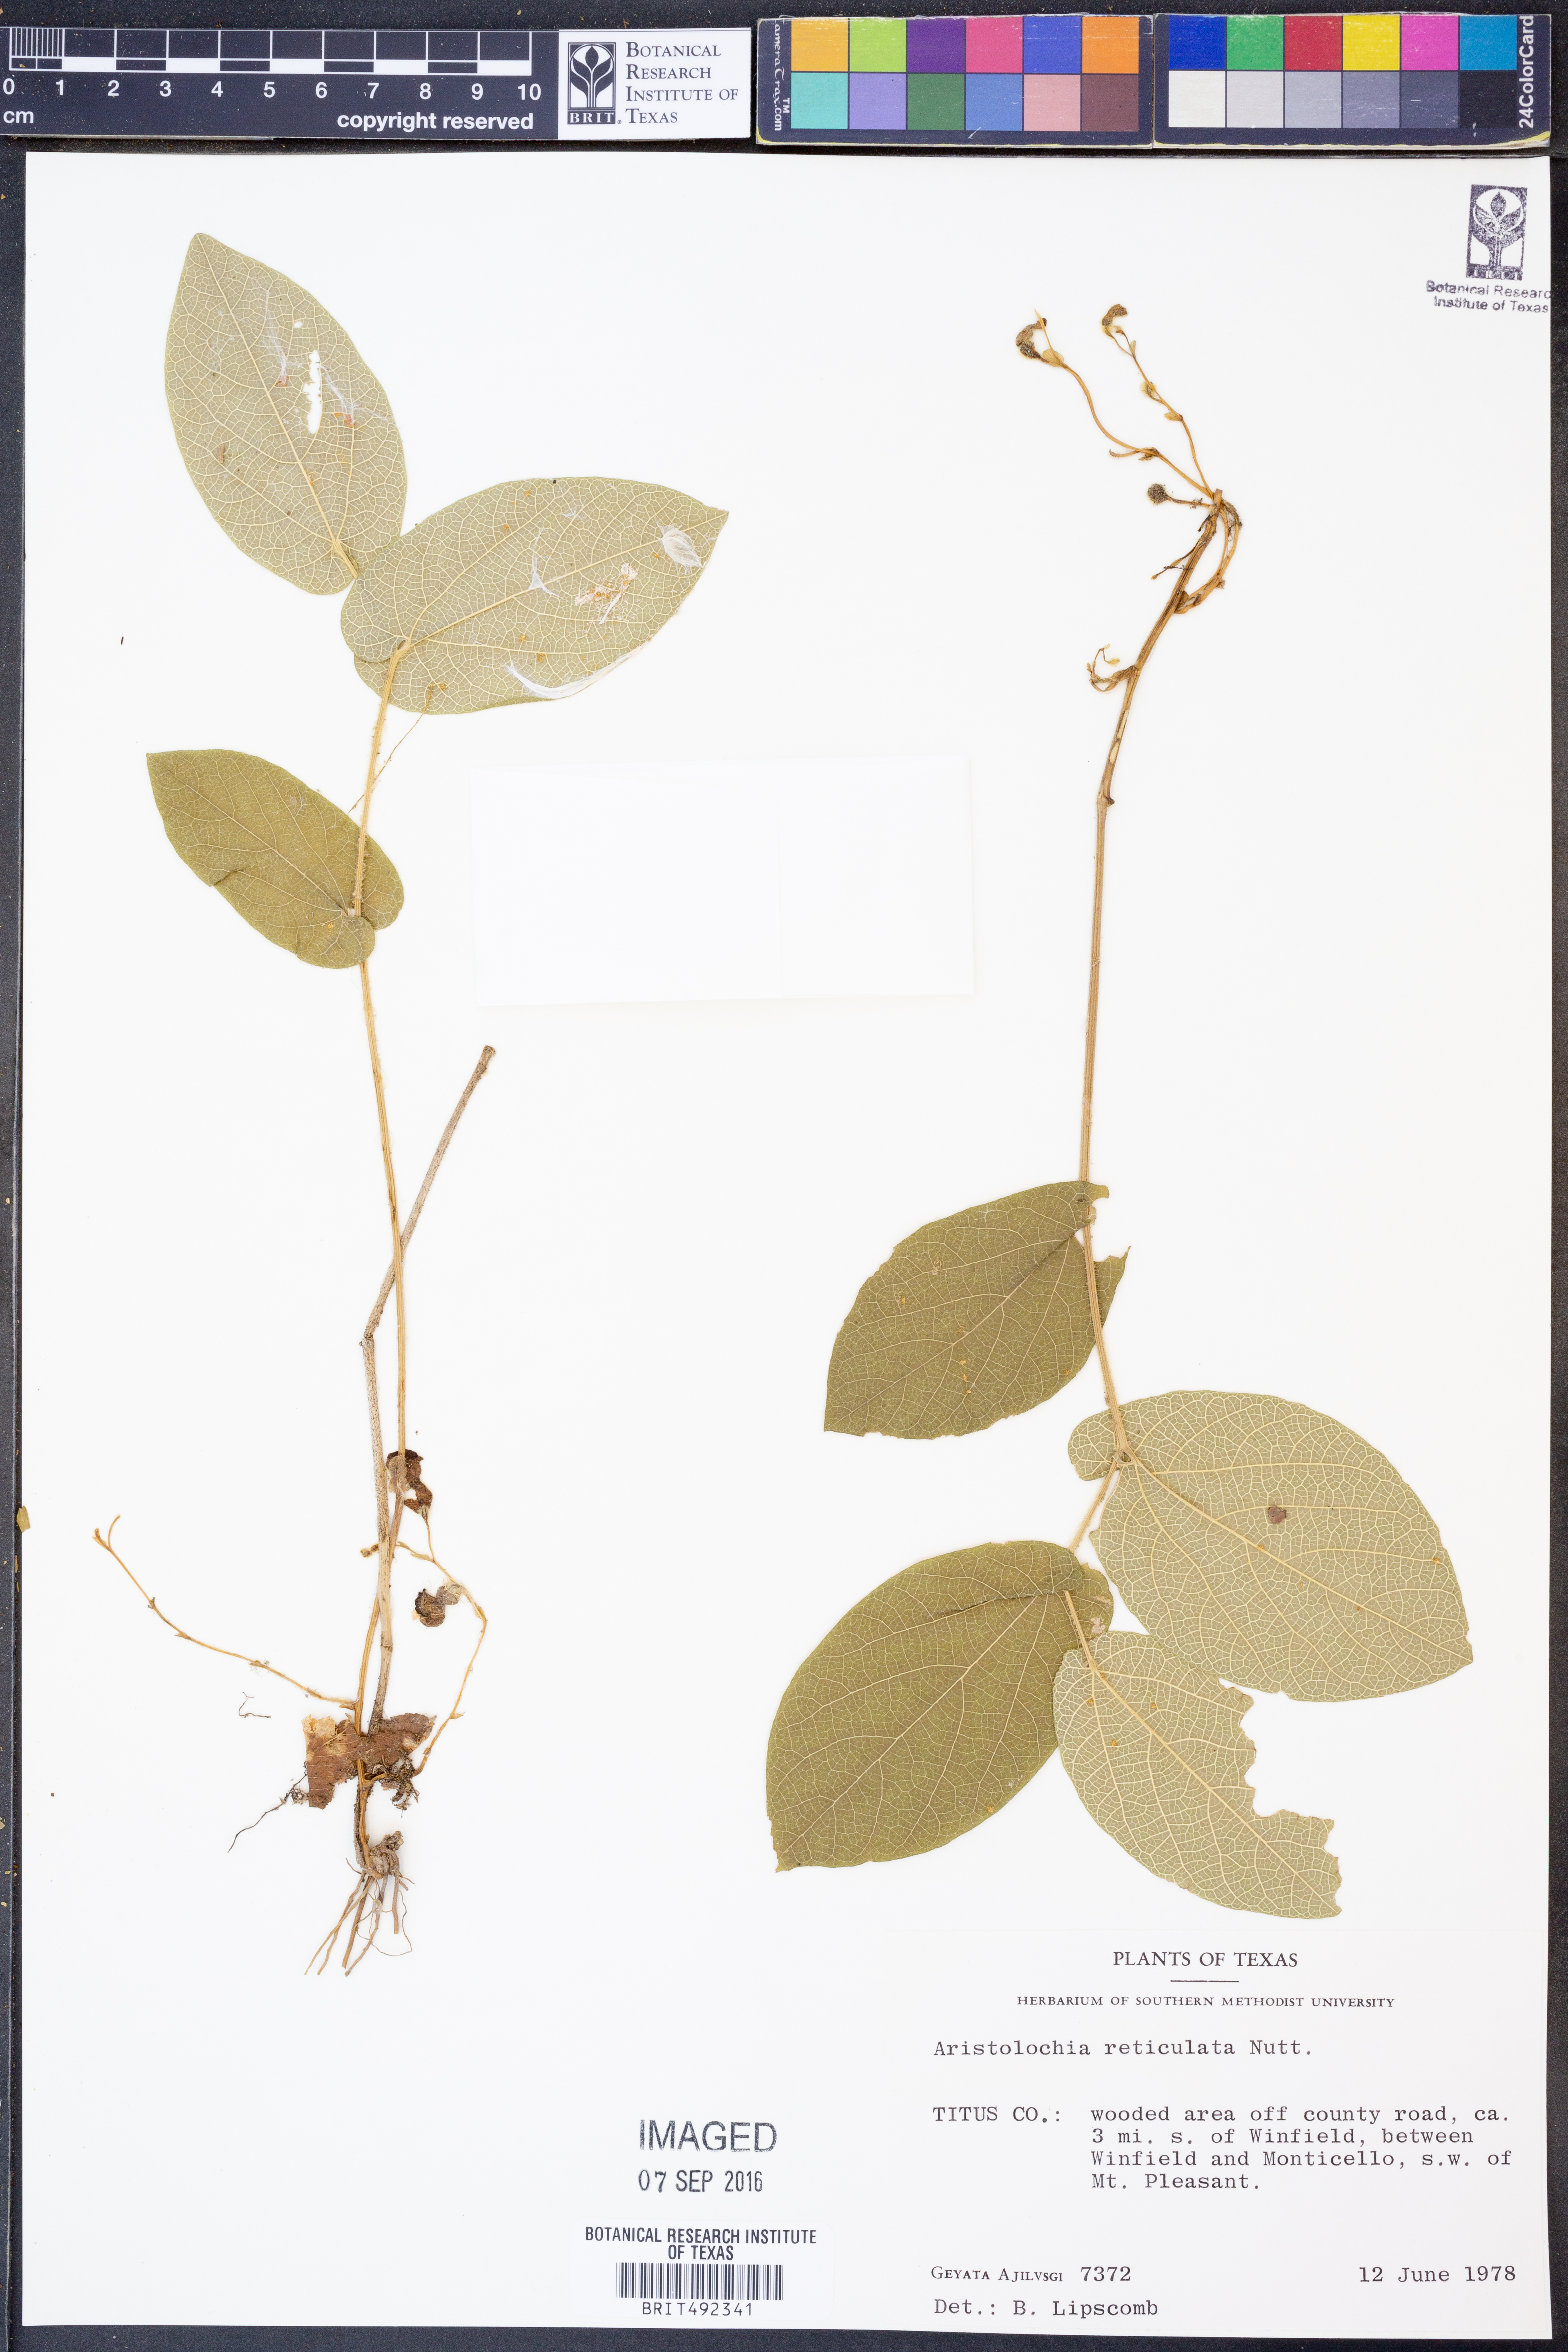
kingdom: Plantae
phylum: Tracheophyta
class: Magnoliopsida
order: Piperales
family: Aristolochiaceae
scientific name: Aristolochiaceae
